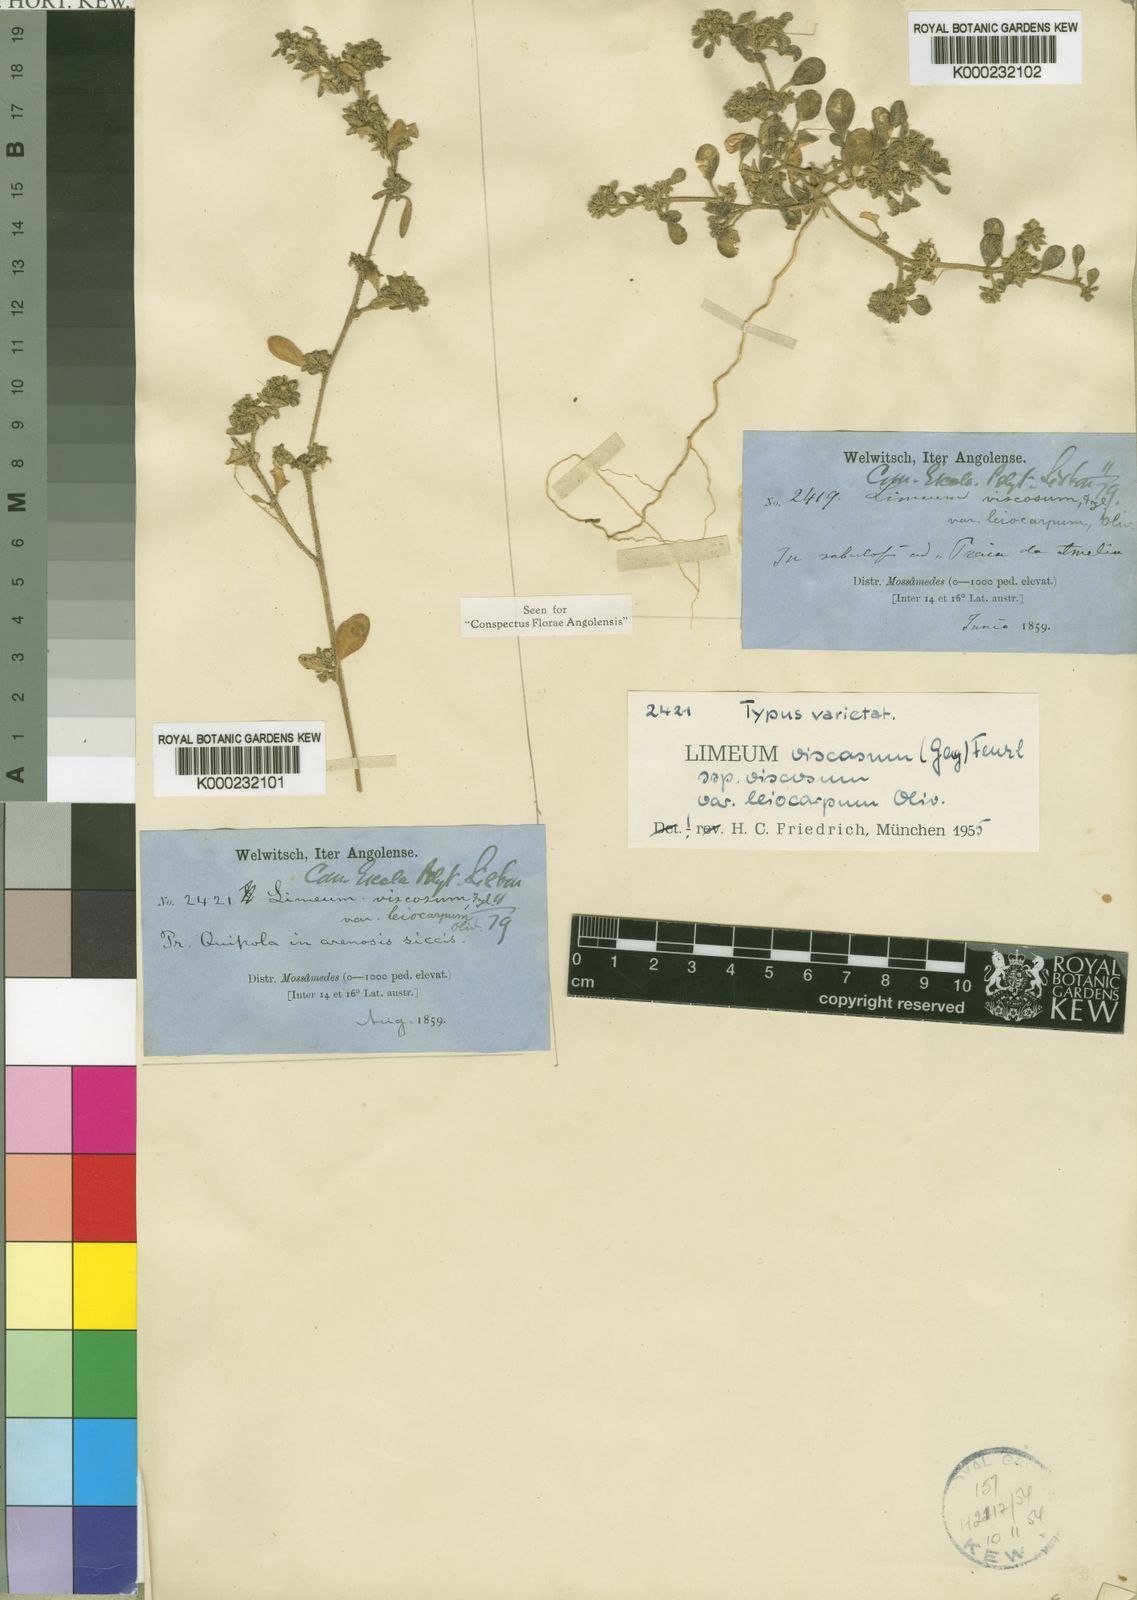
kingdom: Plantae
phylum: Tracheophyta
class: Magnoliopsida
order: Caryophyllales
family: Limeaceae
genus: Limeum
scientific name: Limeum viscosum
